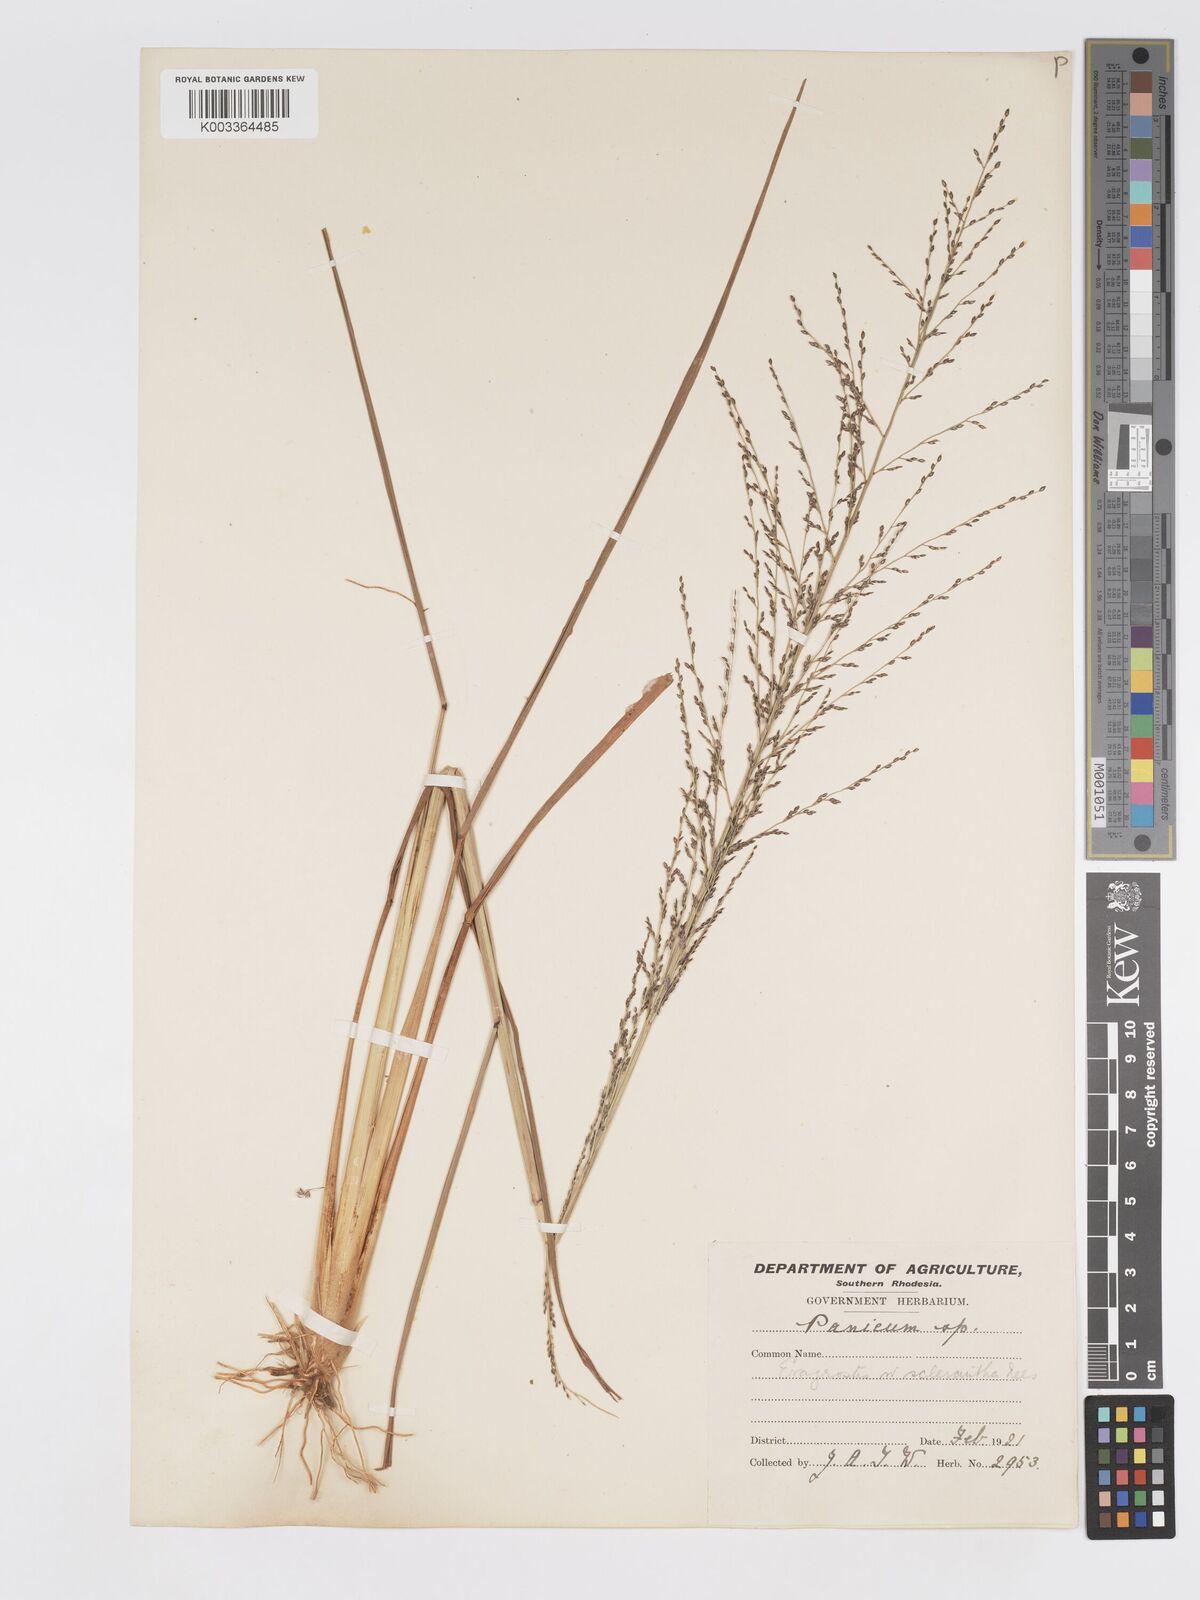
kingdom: Plantae
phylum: Tracheophyta
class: Liliopsida
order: Poales
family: Poaceae
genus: Eragrostis
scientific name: Eragrostis sclerantha
